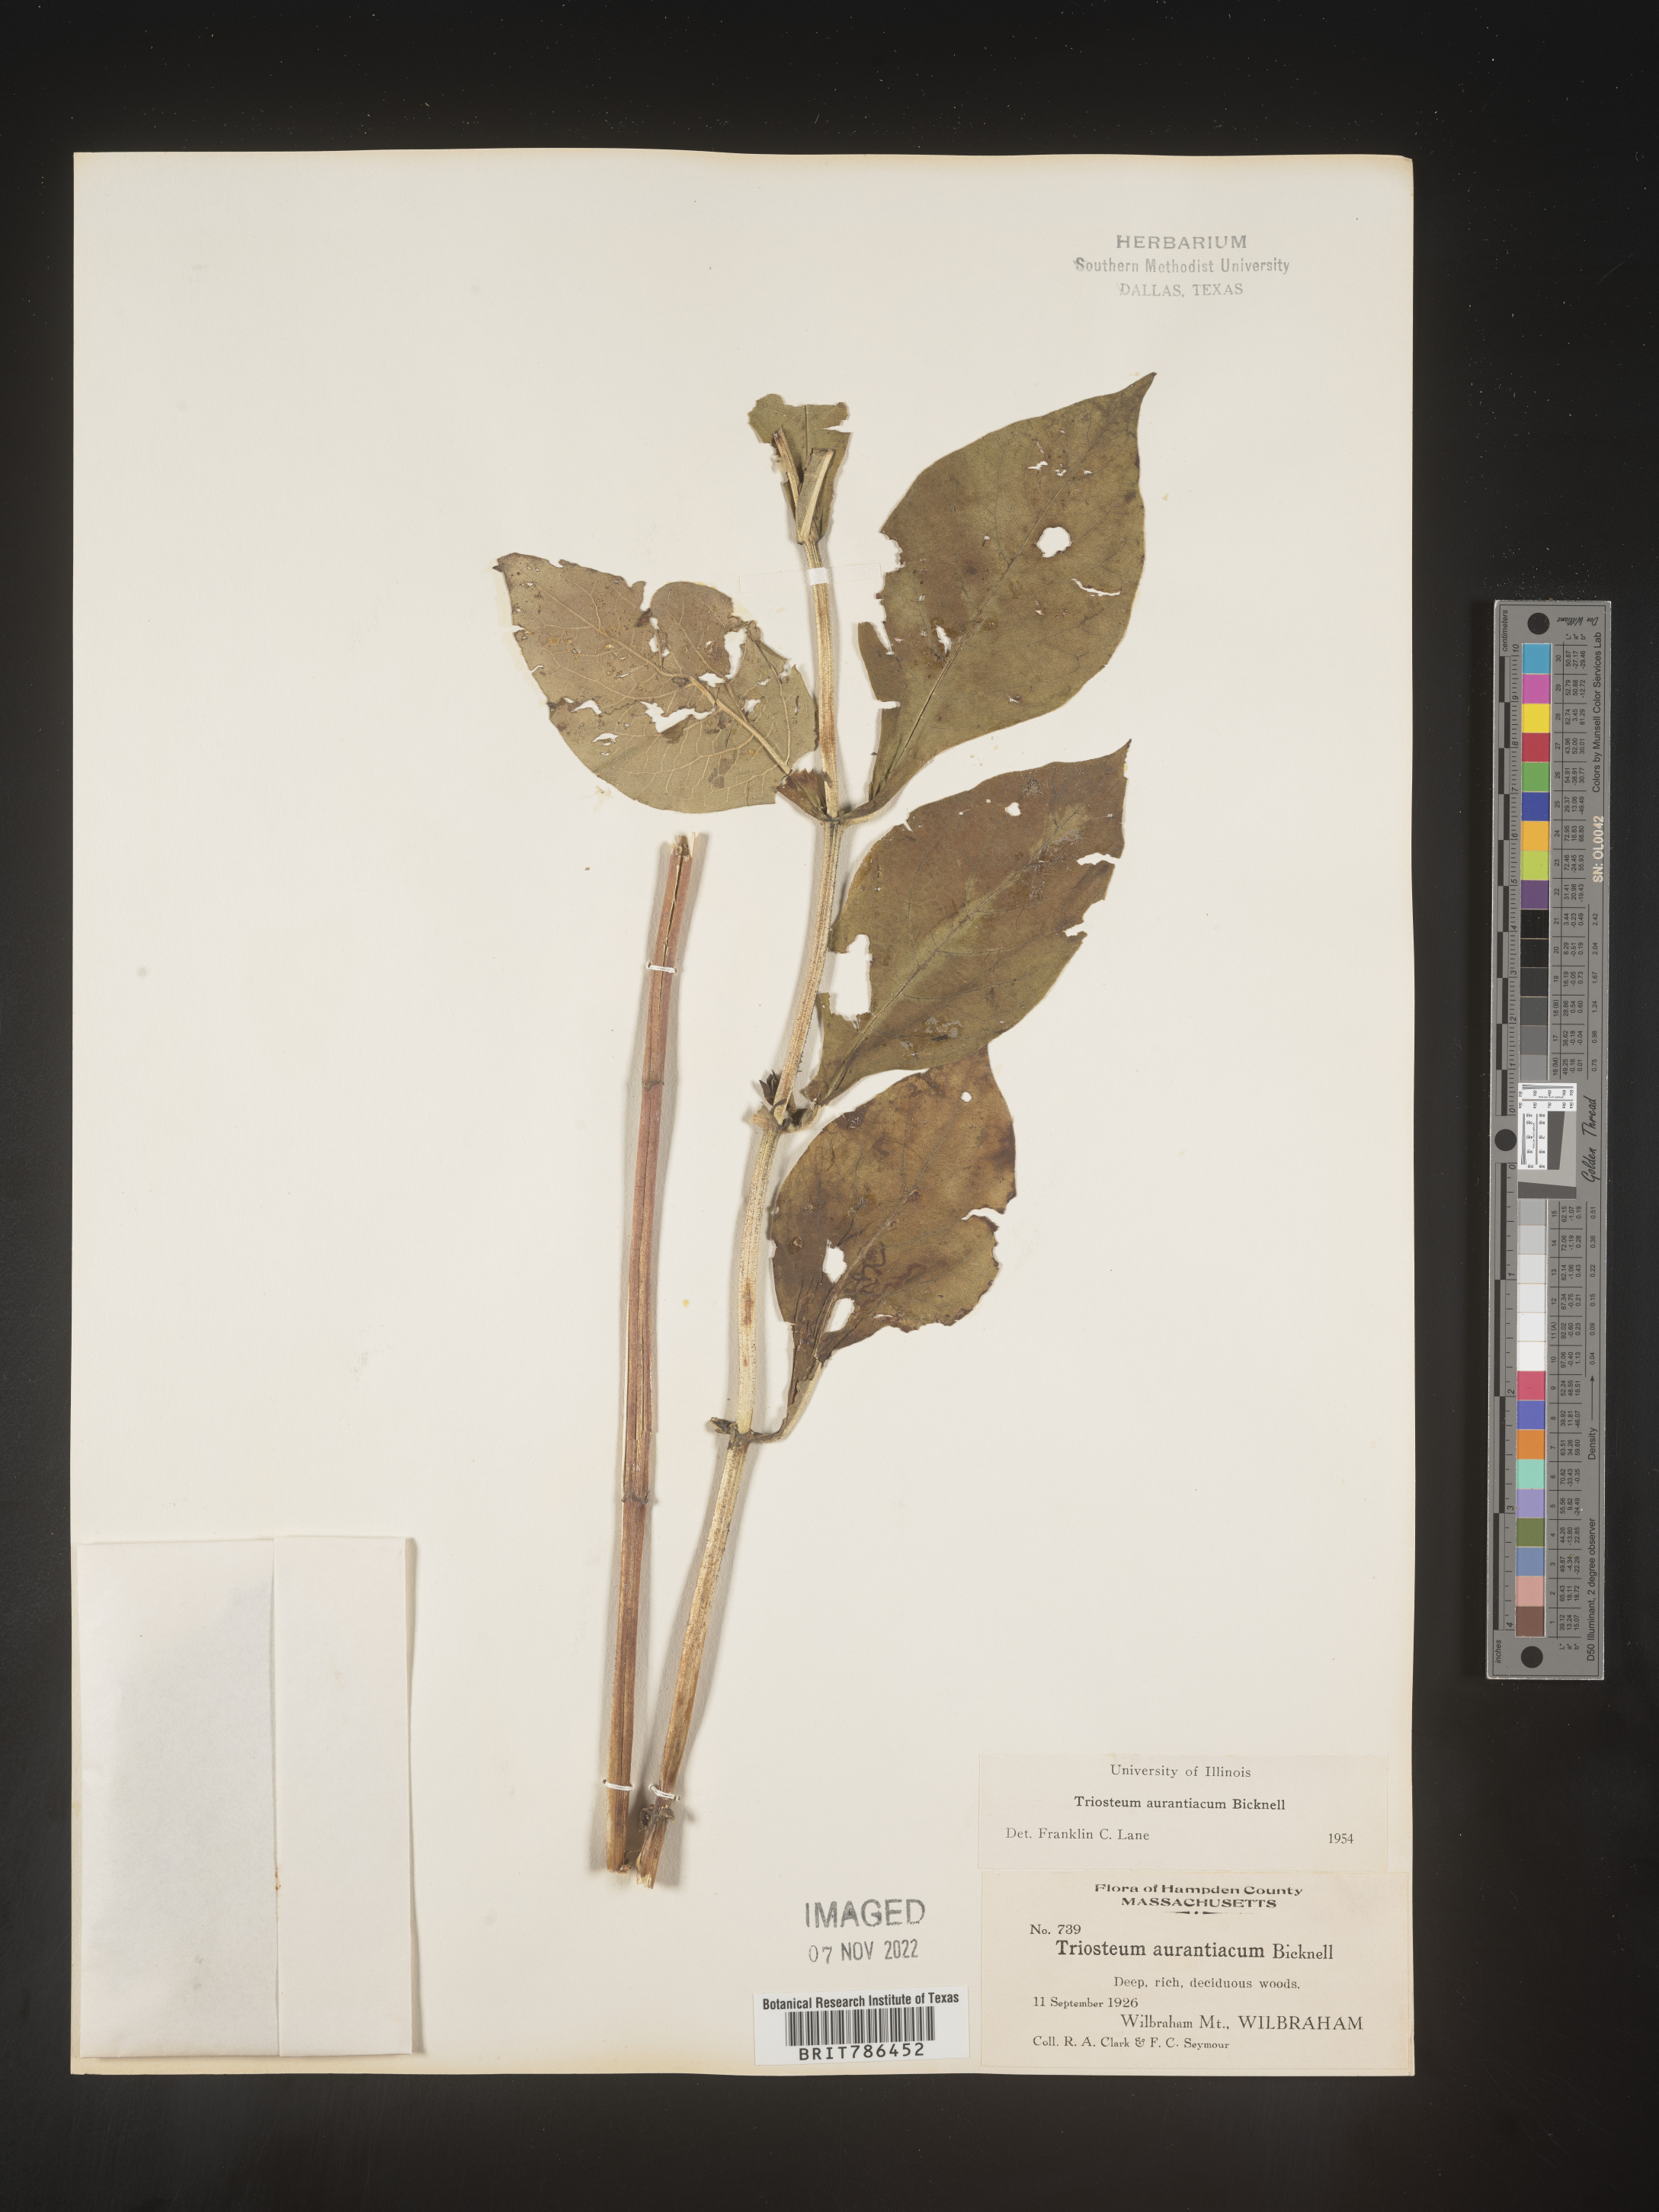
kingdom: Plantae
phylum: Tracheophyta
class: Magnoliopsida
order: Dipsacales
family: Caprifoliaceae
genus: Triosteum
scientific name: Triosteum aurantiacum
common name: Coffee tinker's-weed
